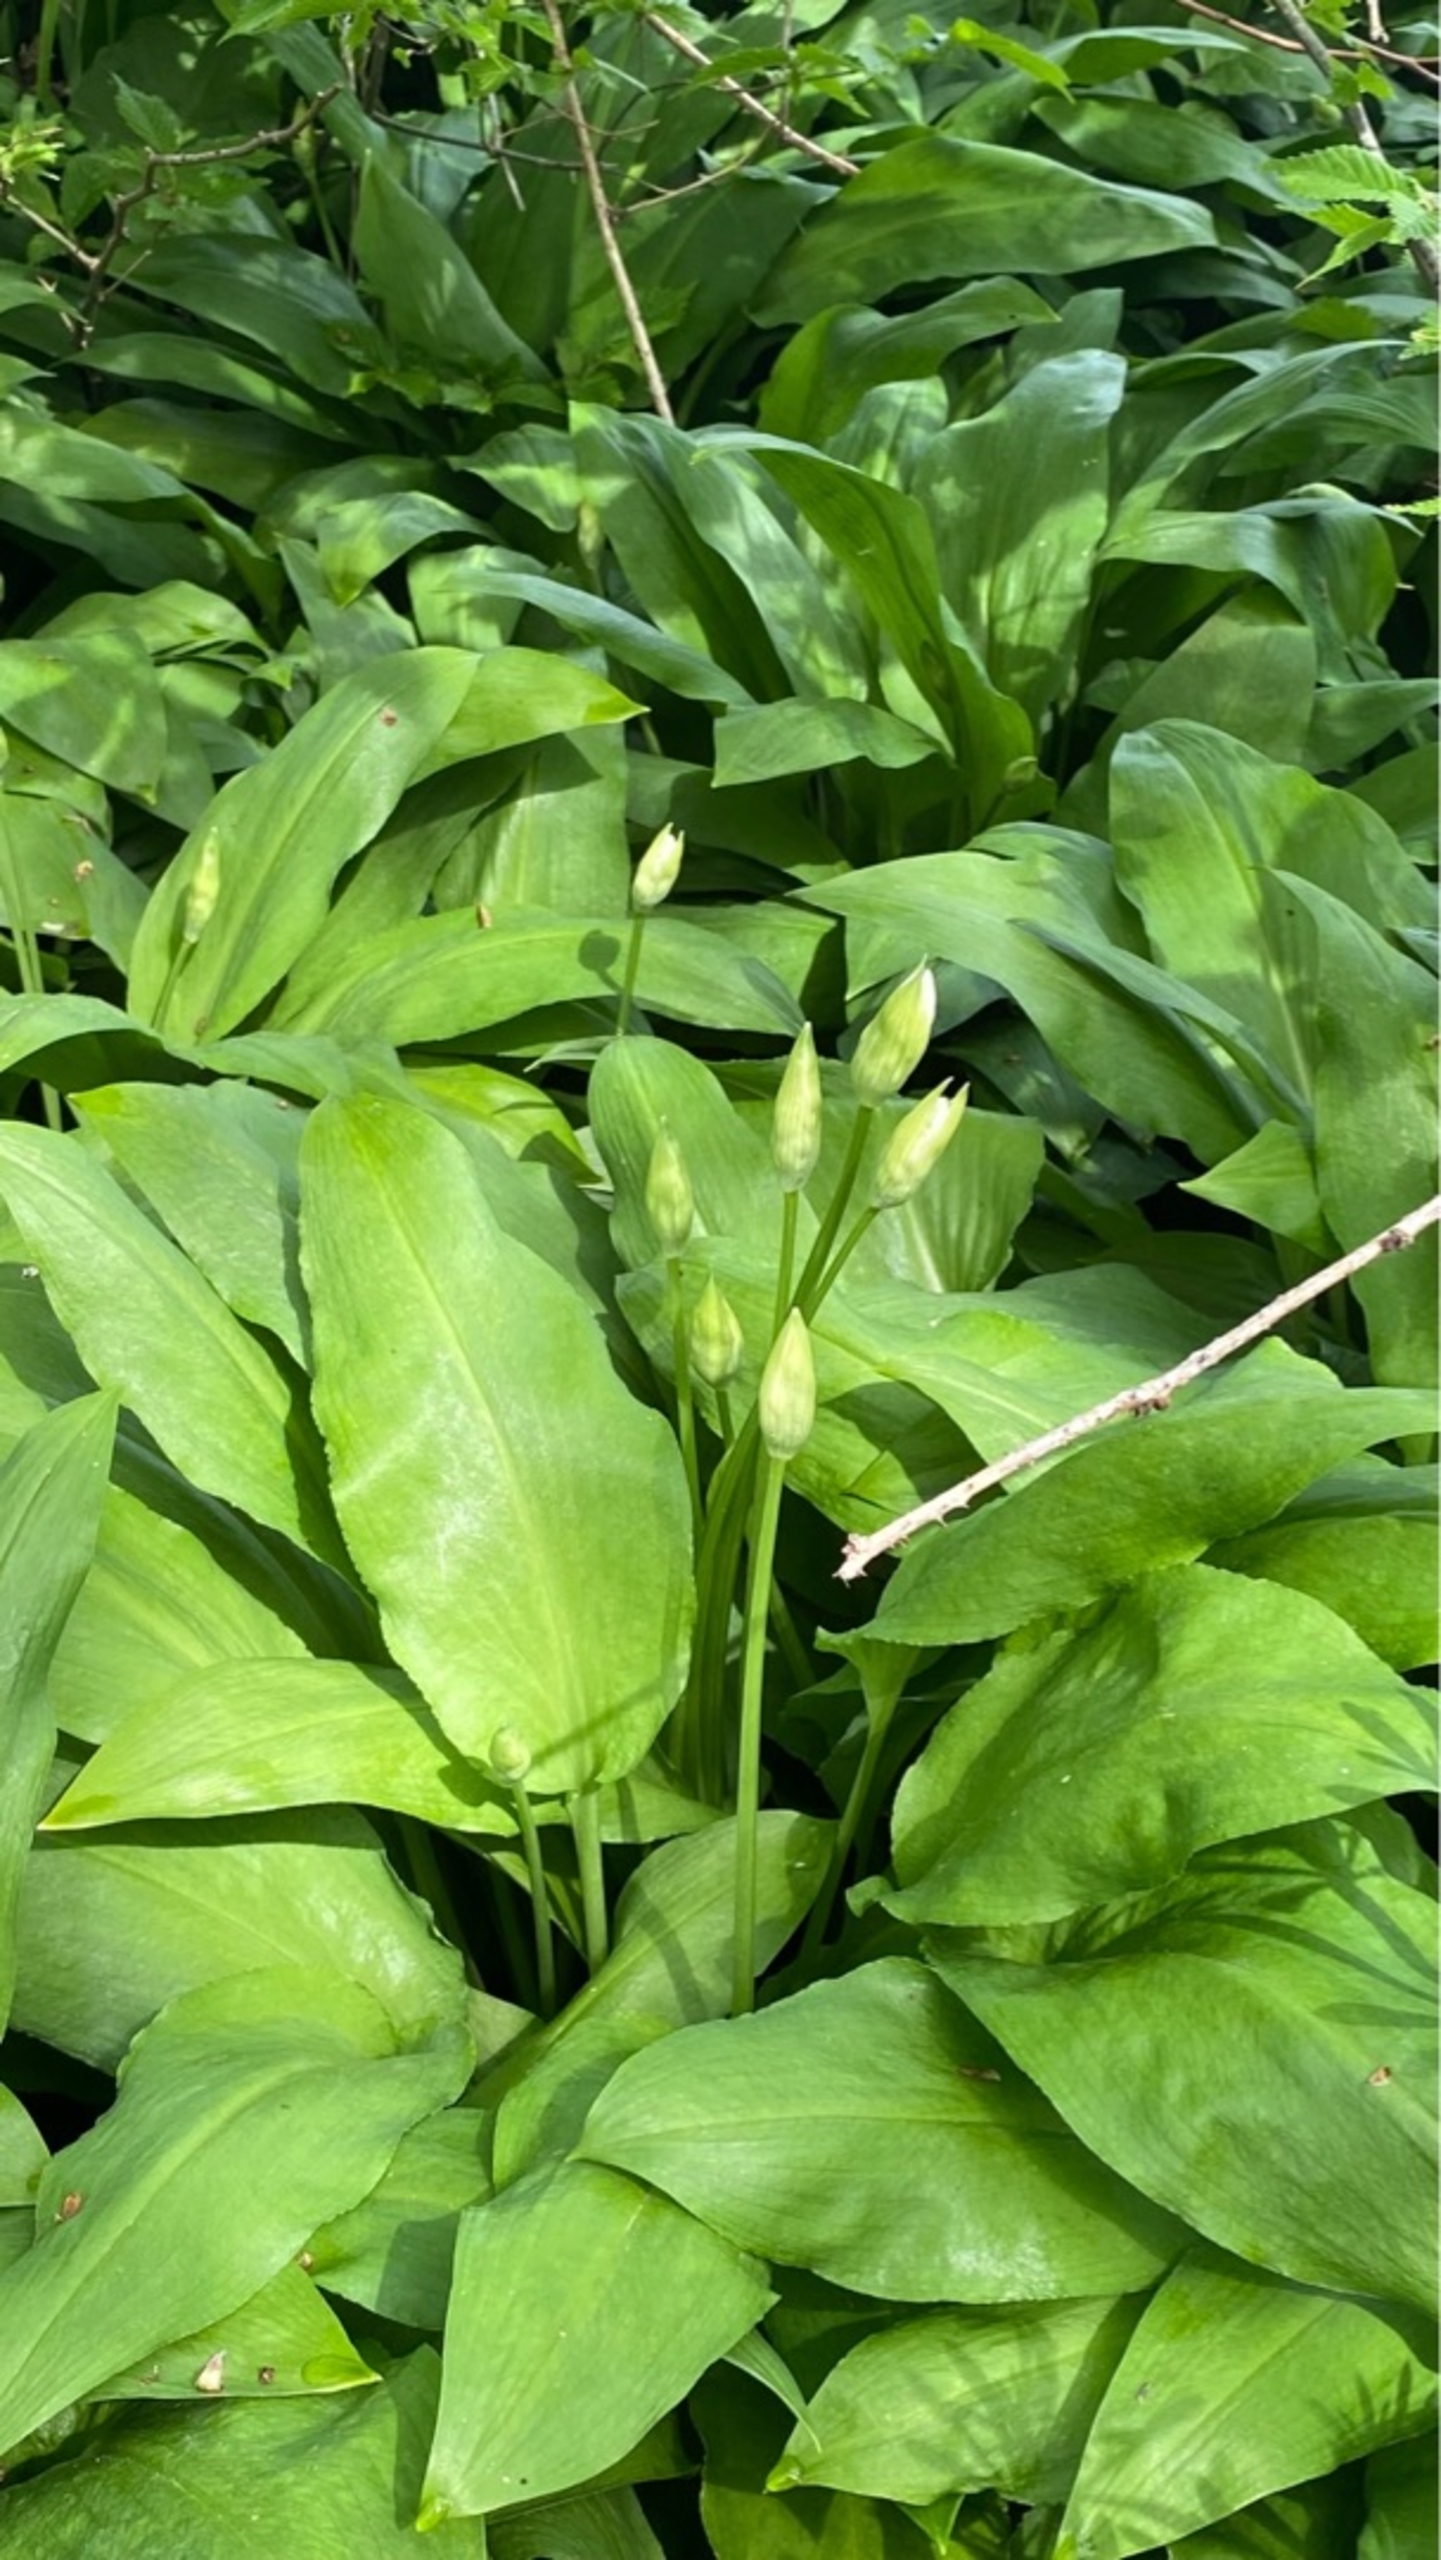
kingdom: Plantae
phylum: Tracheophyta
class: Liliopsida
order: Asparagales
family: Amaryllidaceae
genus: Allium
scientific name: Allium ursinum
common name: Rams-løg
